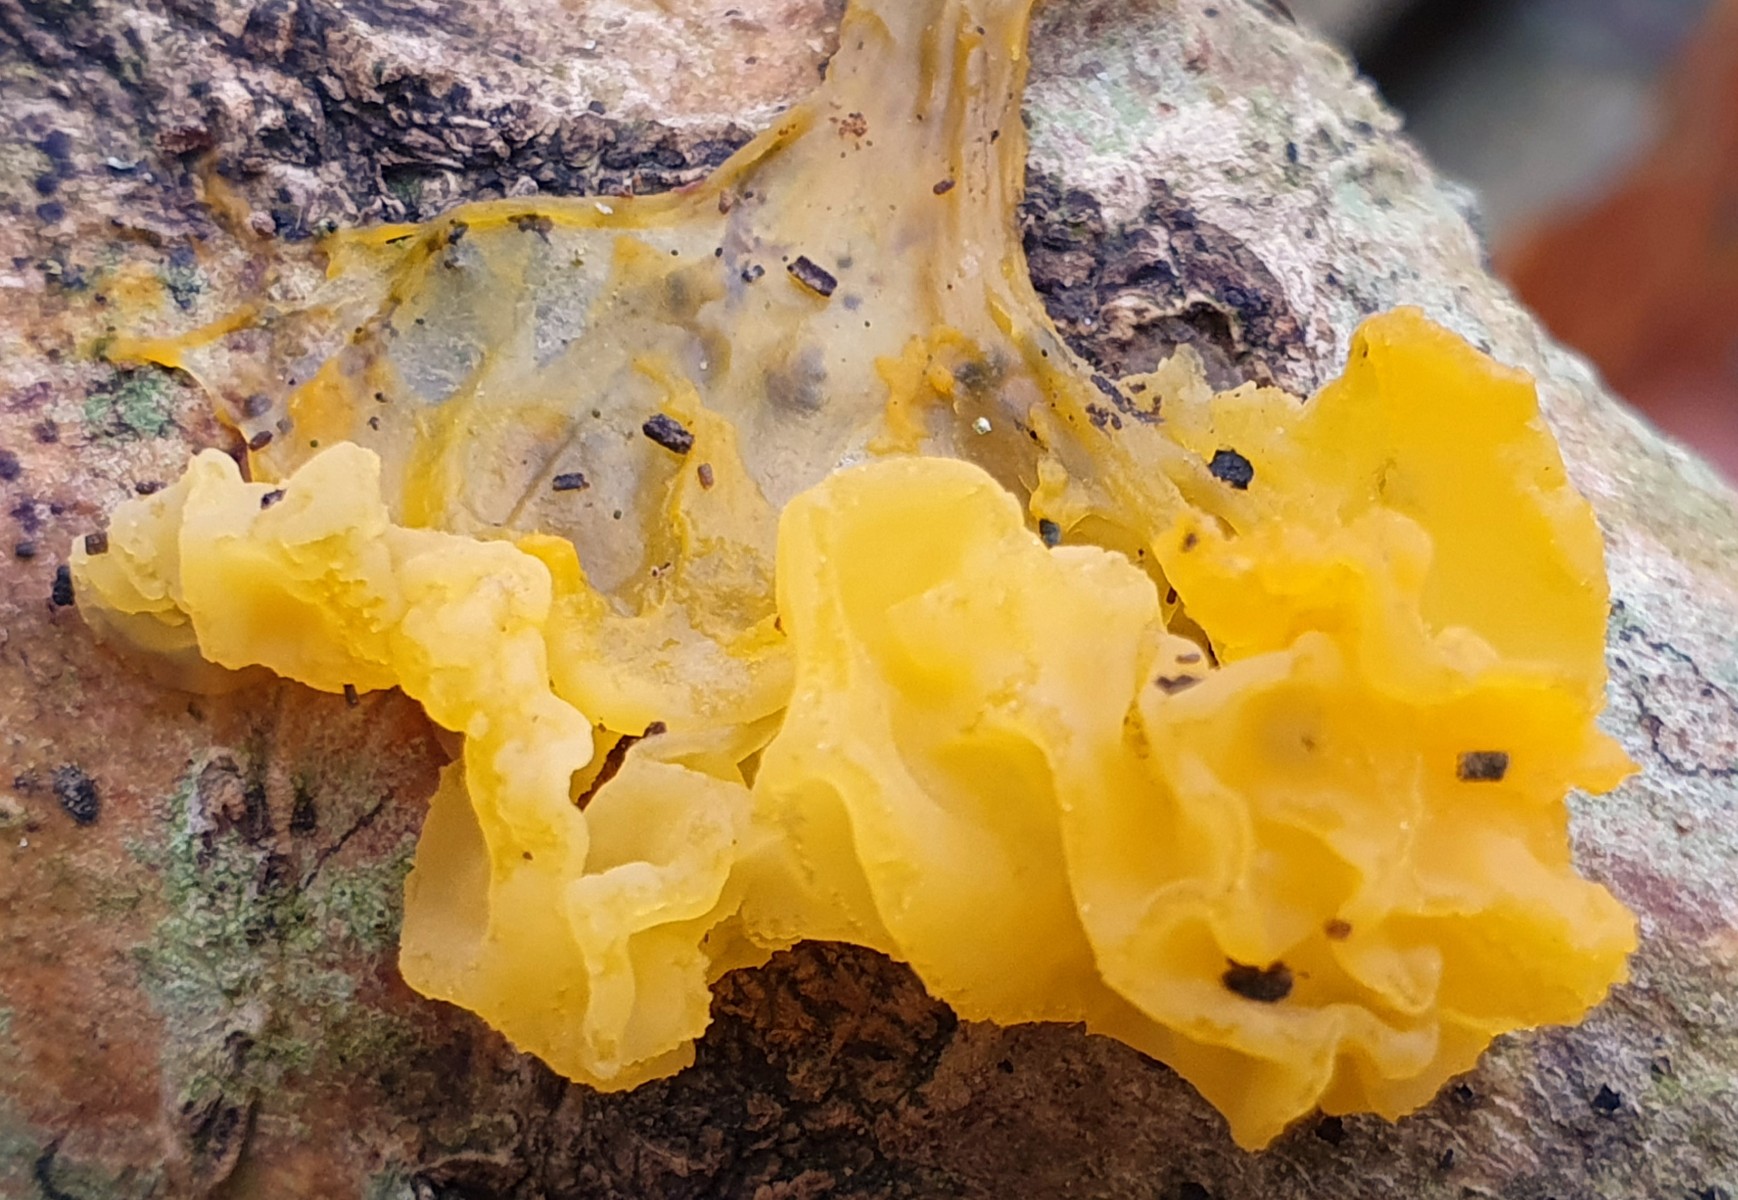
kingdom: Fungi
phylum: Basidiomycota
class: Tremellomycetes
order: Tremellales
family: Tremellaceae
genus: Tremella
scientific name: Tremella mesenterica
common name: gul bævresvamp
